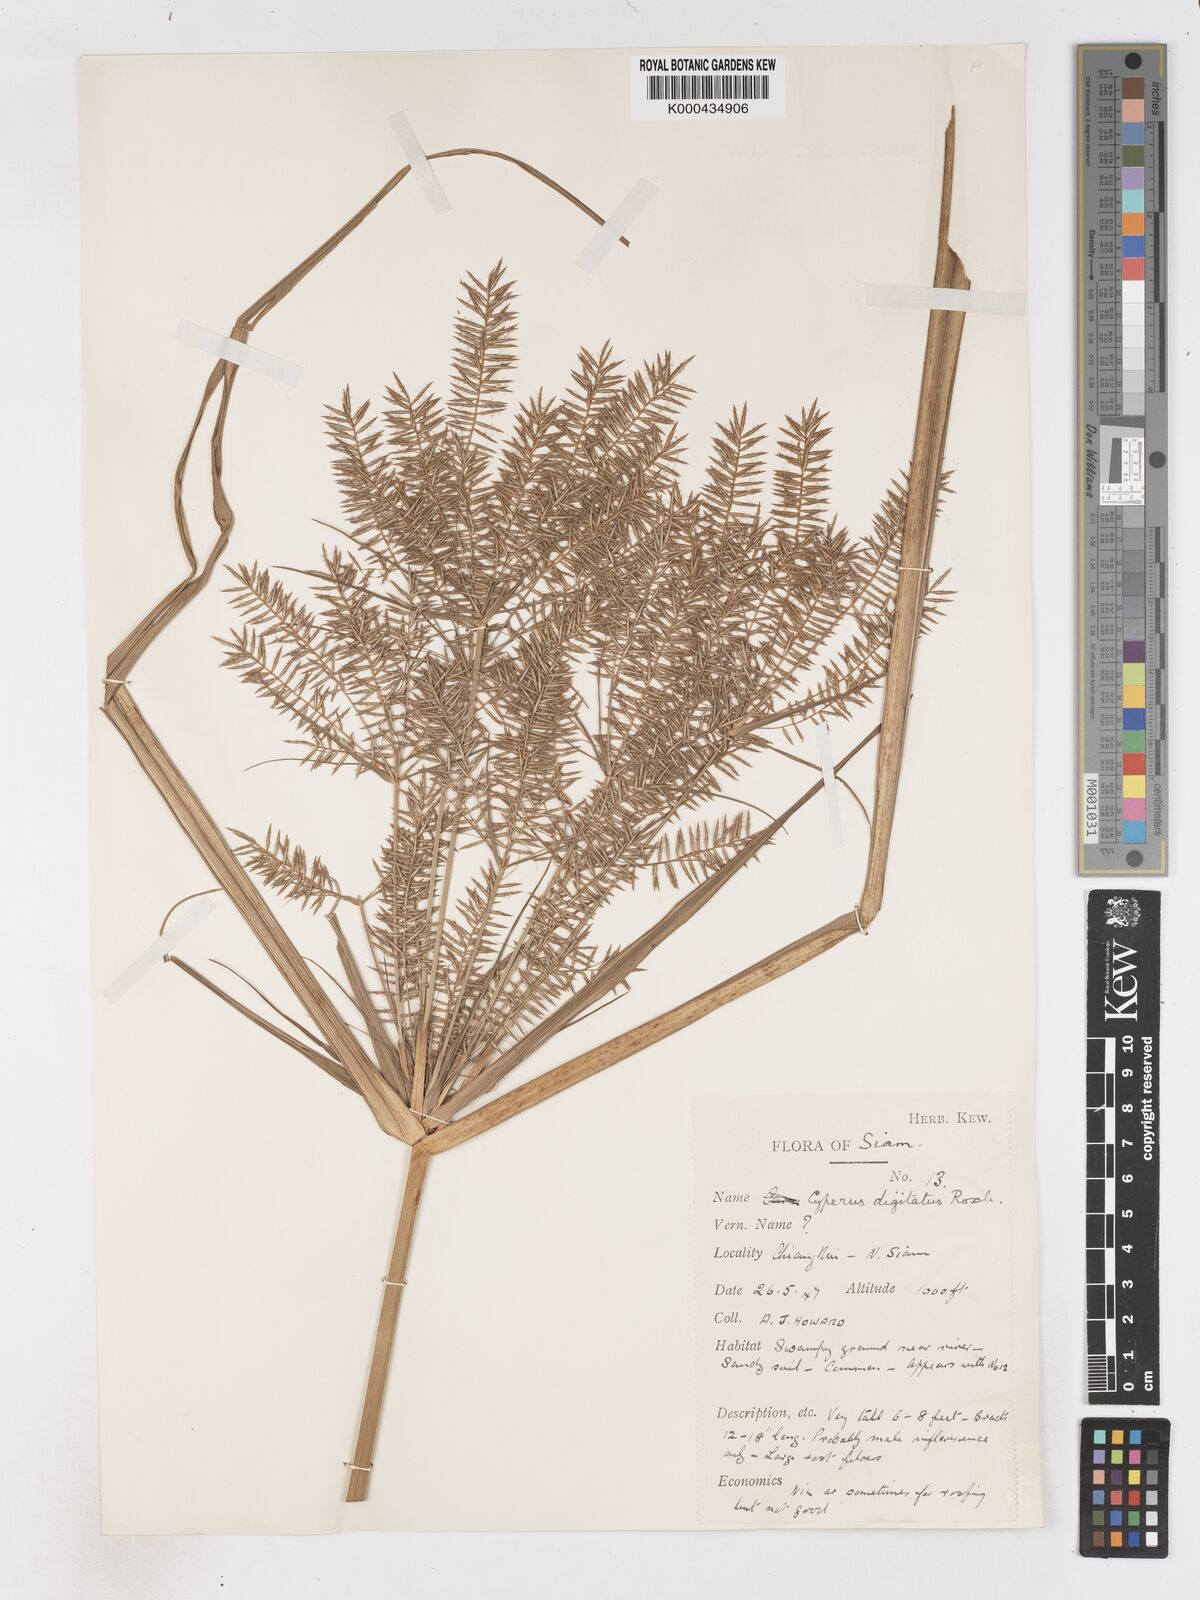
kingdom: Plantae
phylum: Tracheophyta
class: Liliopsida
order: Poales
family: Cyperaceae
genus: Cyperus
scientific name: Cyperus digitatus
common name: Finger flatsedge
